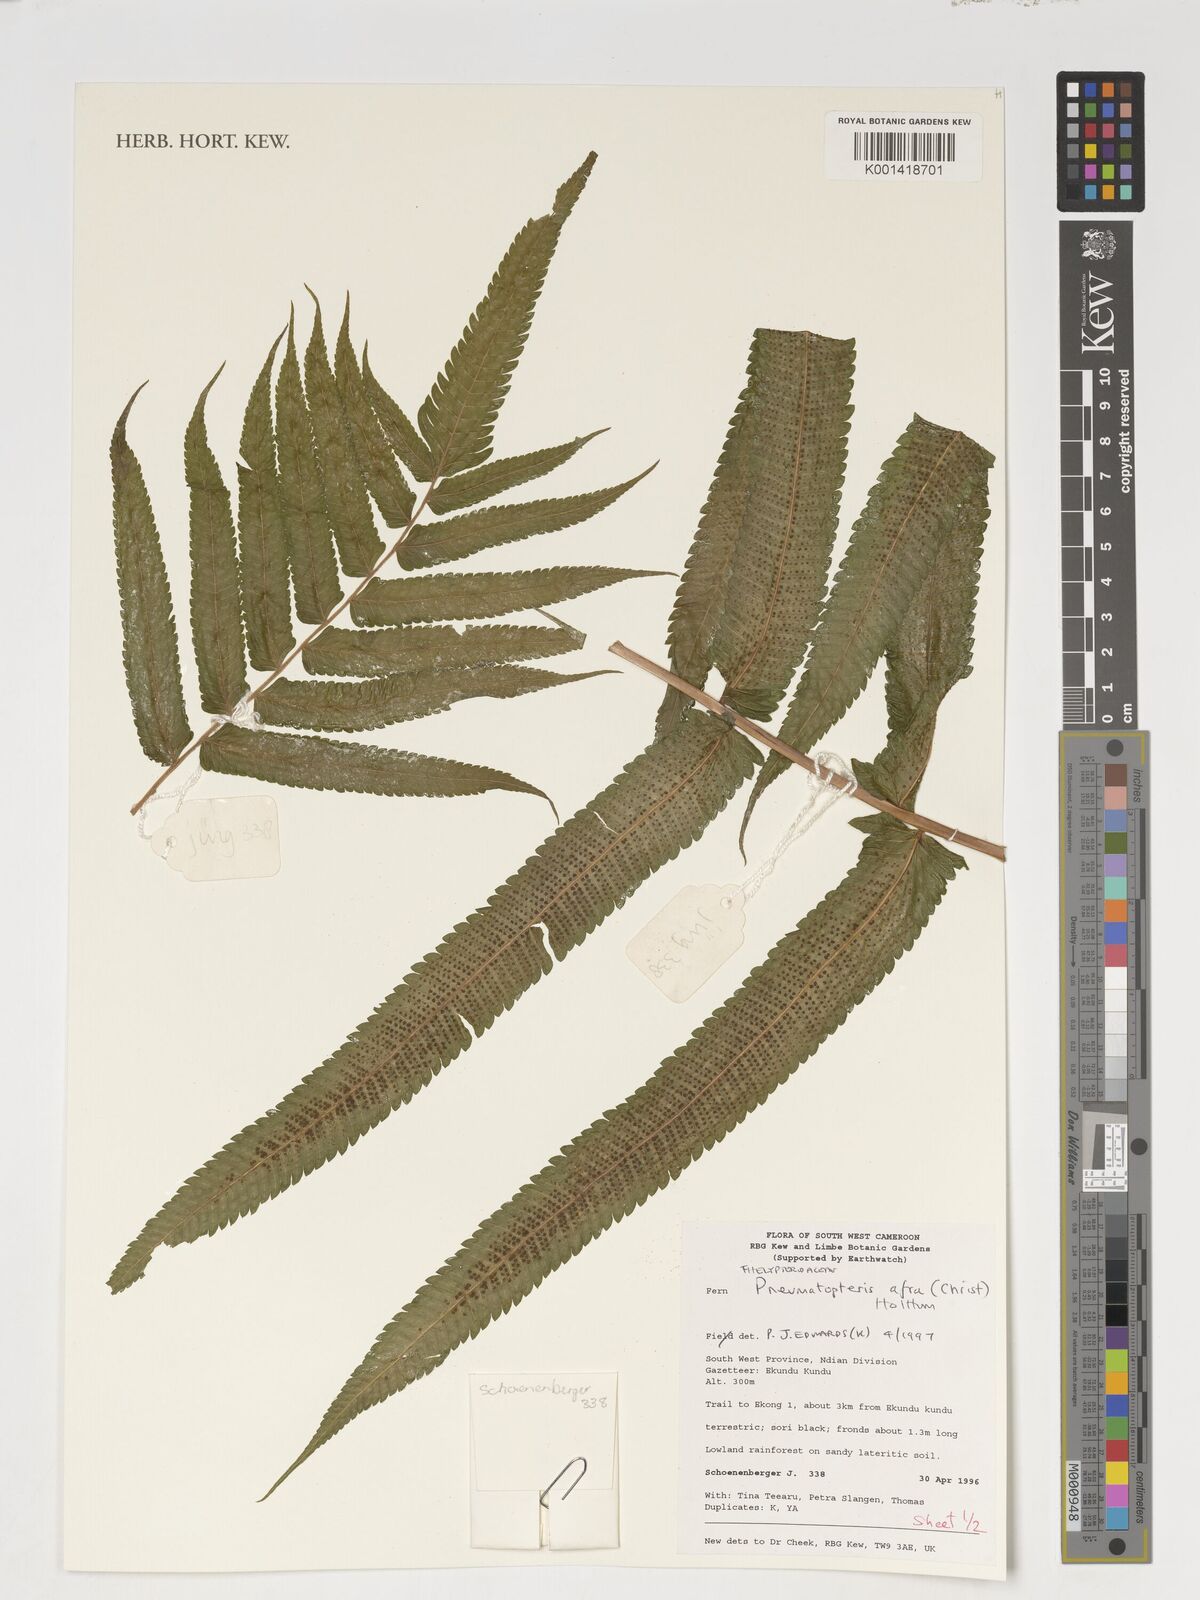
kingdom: Plantae
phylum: Tracheophyta
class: Polypodiopsida
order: Polypodiales
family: Thelypteridaceae
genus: Abacopteris
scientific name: Abacopteris afra
